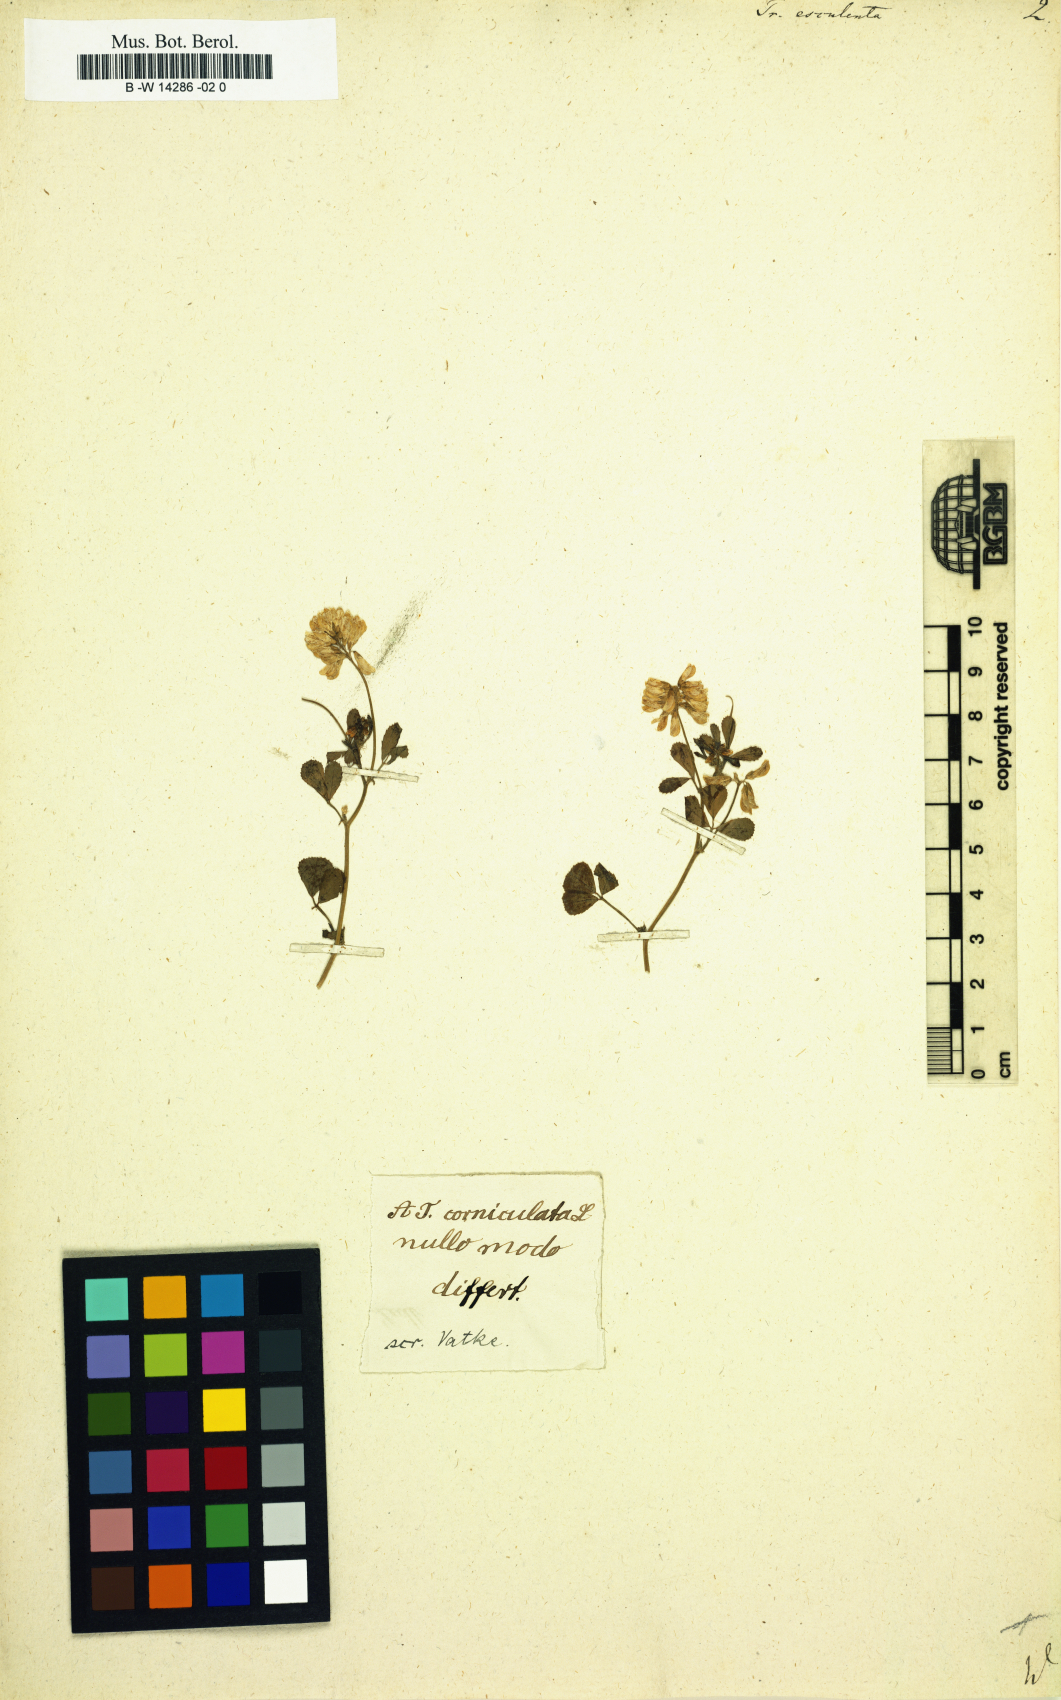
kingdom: Plantae
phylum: Tracheophyta
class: Magnoliopsida
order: Fabales
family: Fabaceae
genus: Trigonella
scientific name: Trigonella esculenta
